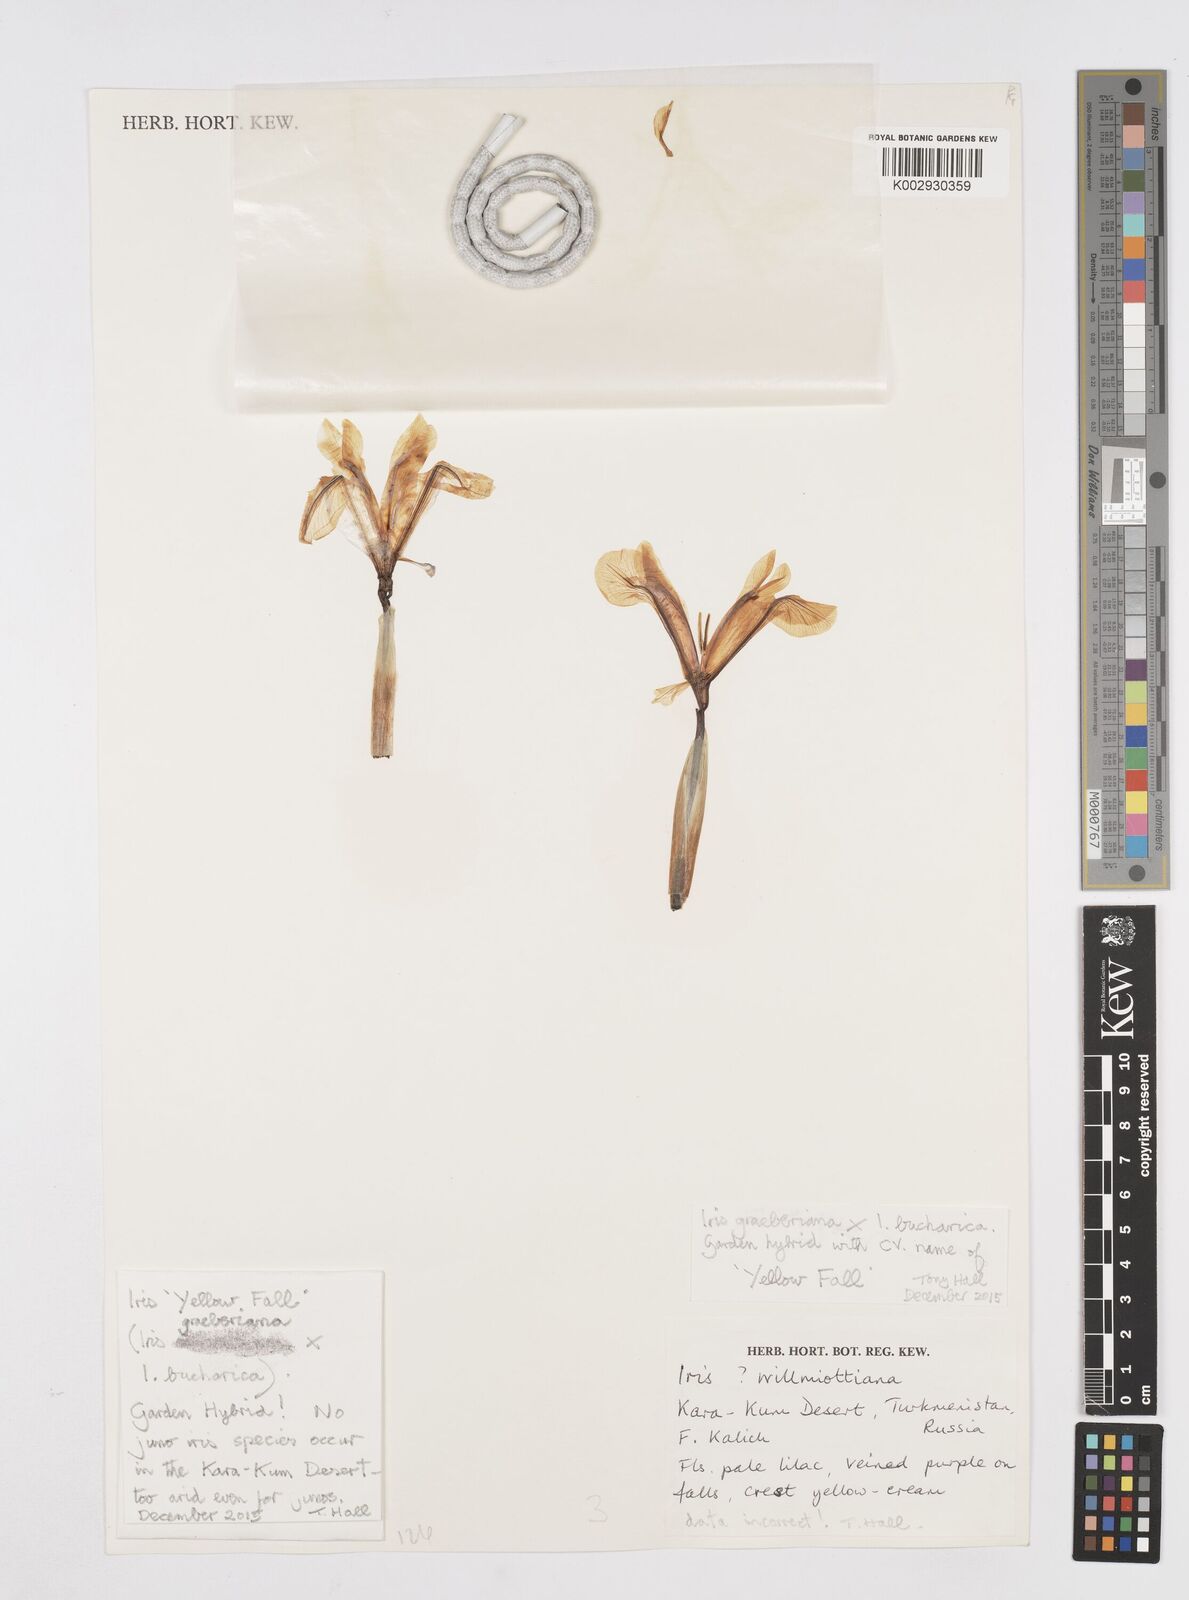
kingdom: Plantae
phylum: Tracheophyta
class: Liliopsida
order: Asparagales
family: Iridaceae
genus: Iris
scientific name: Iris willmottiana
